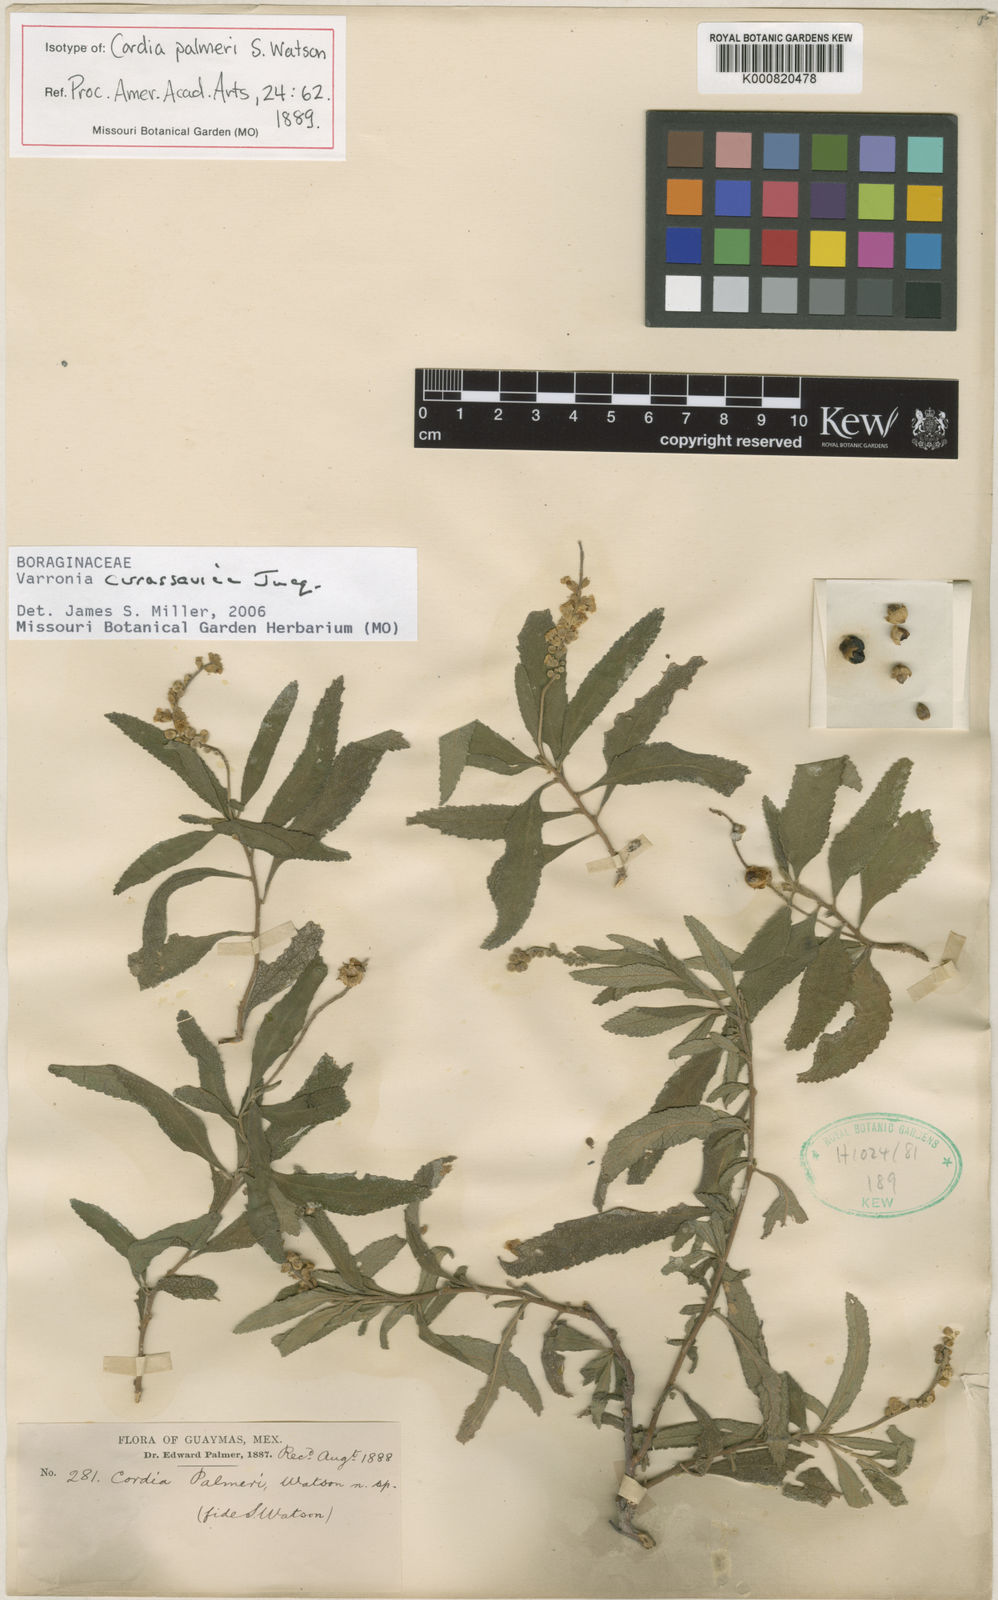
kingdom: Plantae
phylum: Tracheophyta
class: Magnoliopsida
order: Boraginales
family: Cordiaceae
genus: Varronia
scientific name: Varronia curassavica
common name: Black sage
